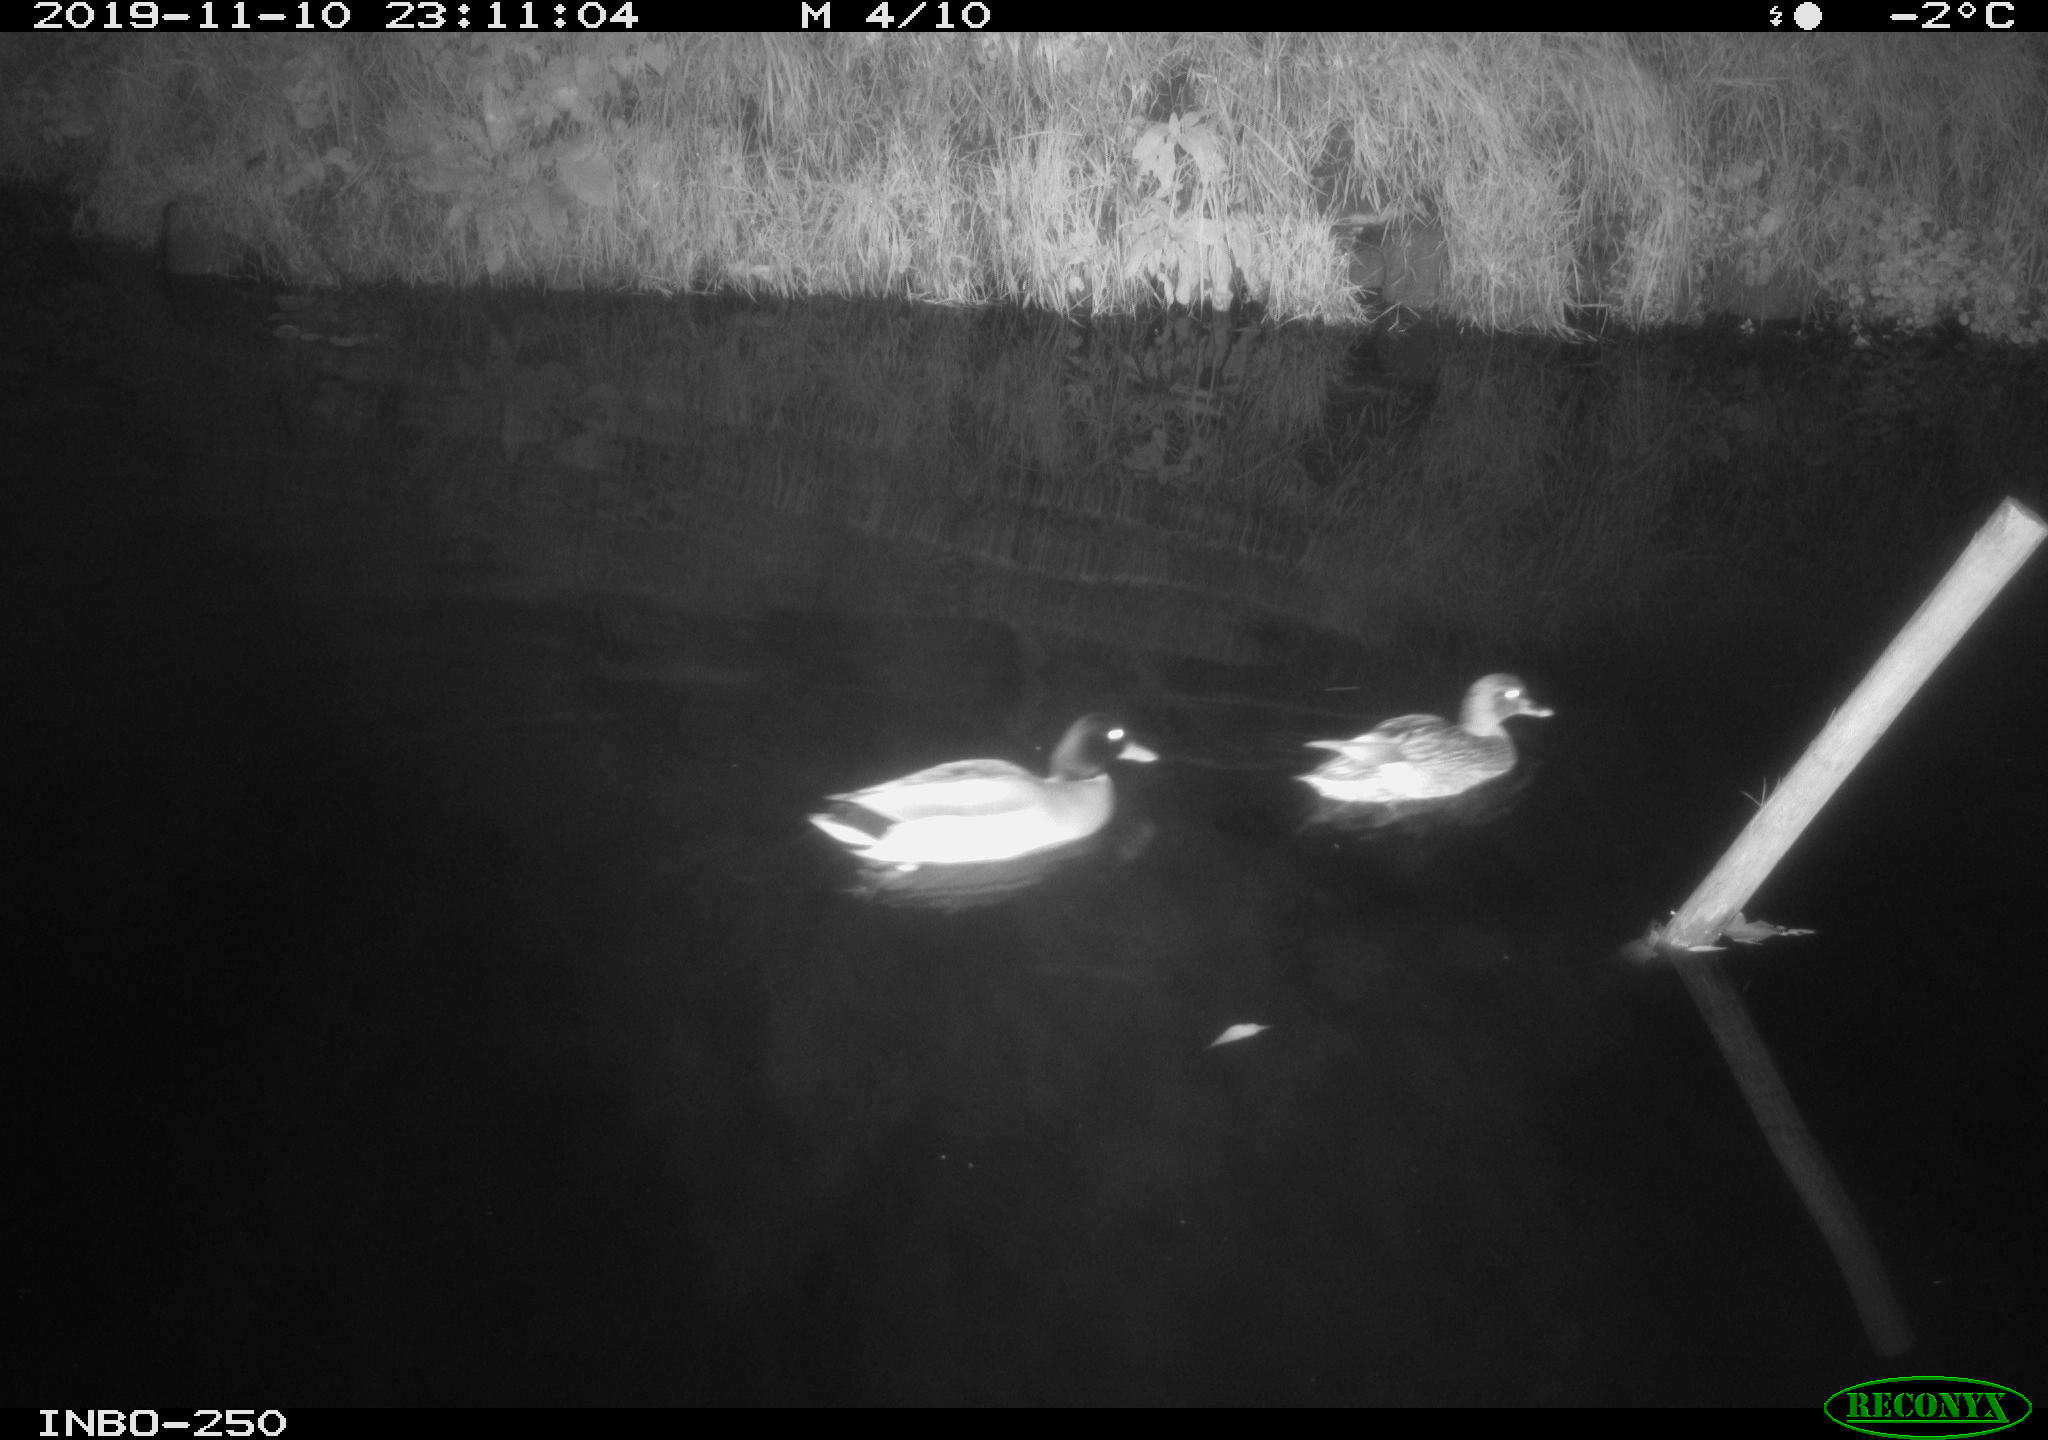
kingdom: Animalia
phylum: Chordata
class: Aves
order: Anseriformes
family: Anatidae
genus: Anas
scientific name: Anas platyrhynchos
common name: Mallard
